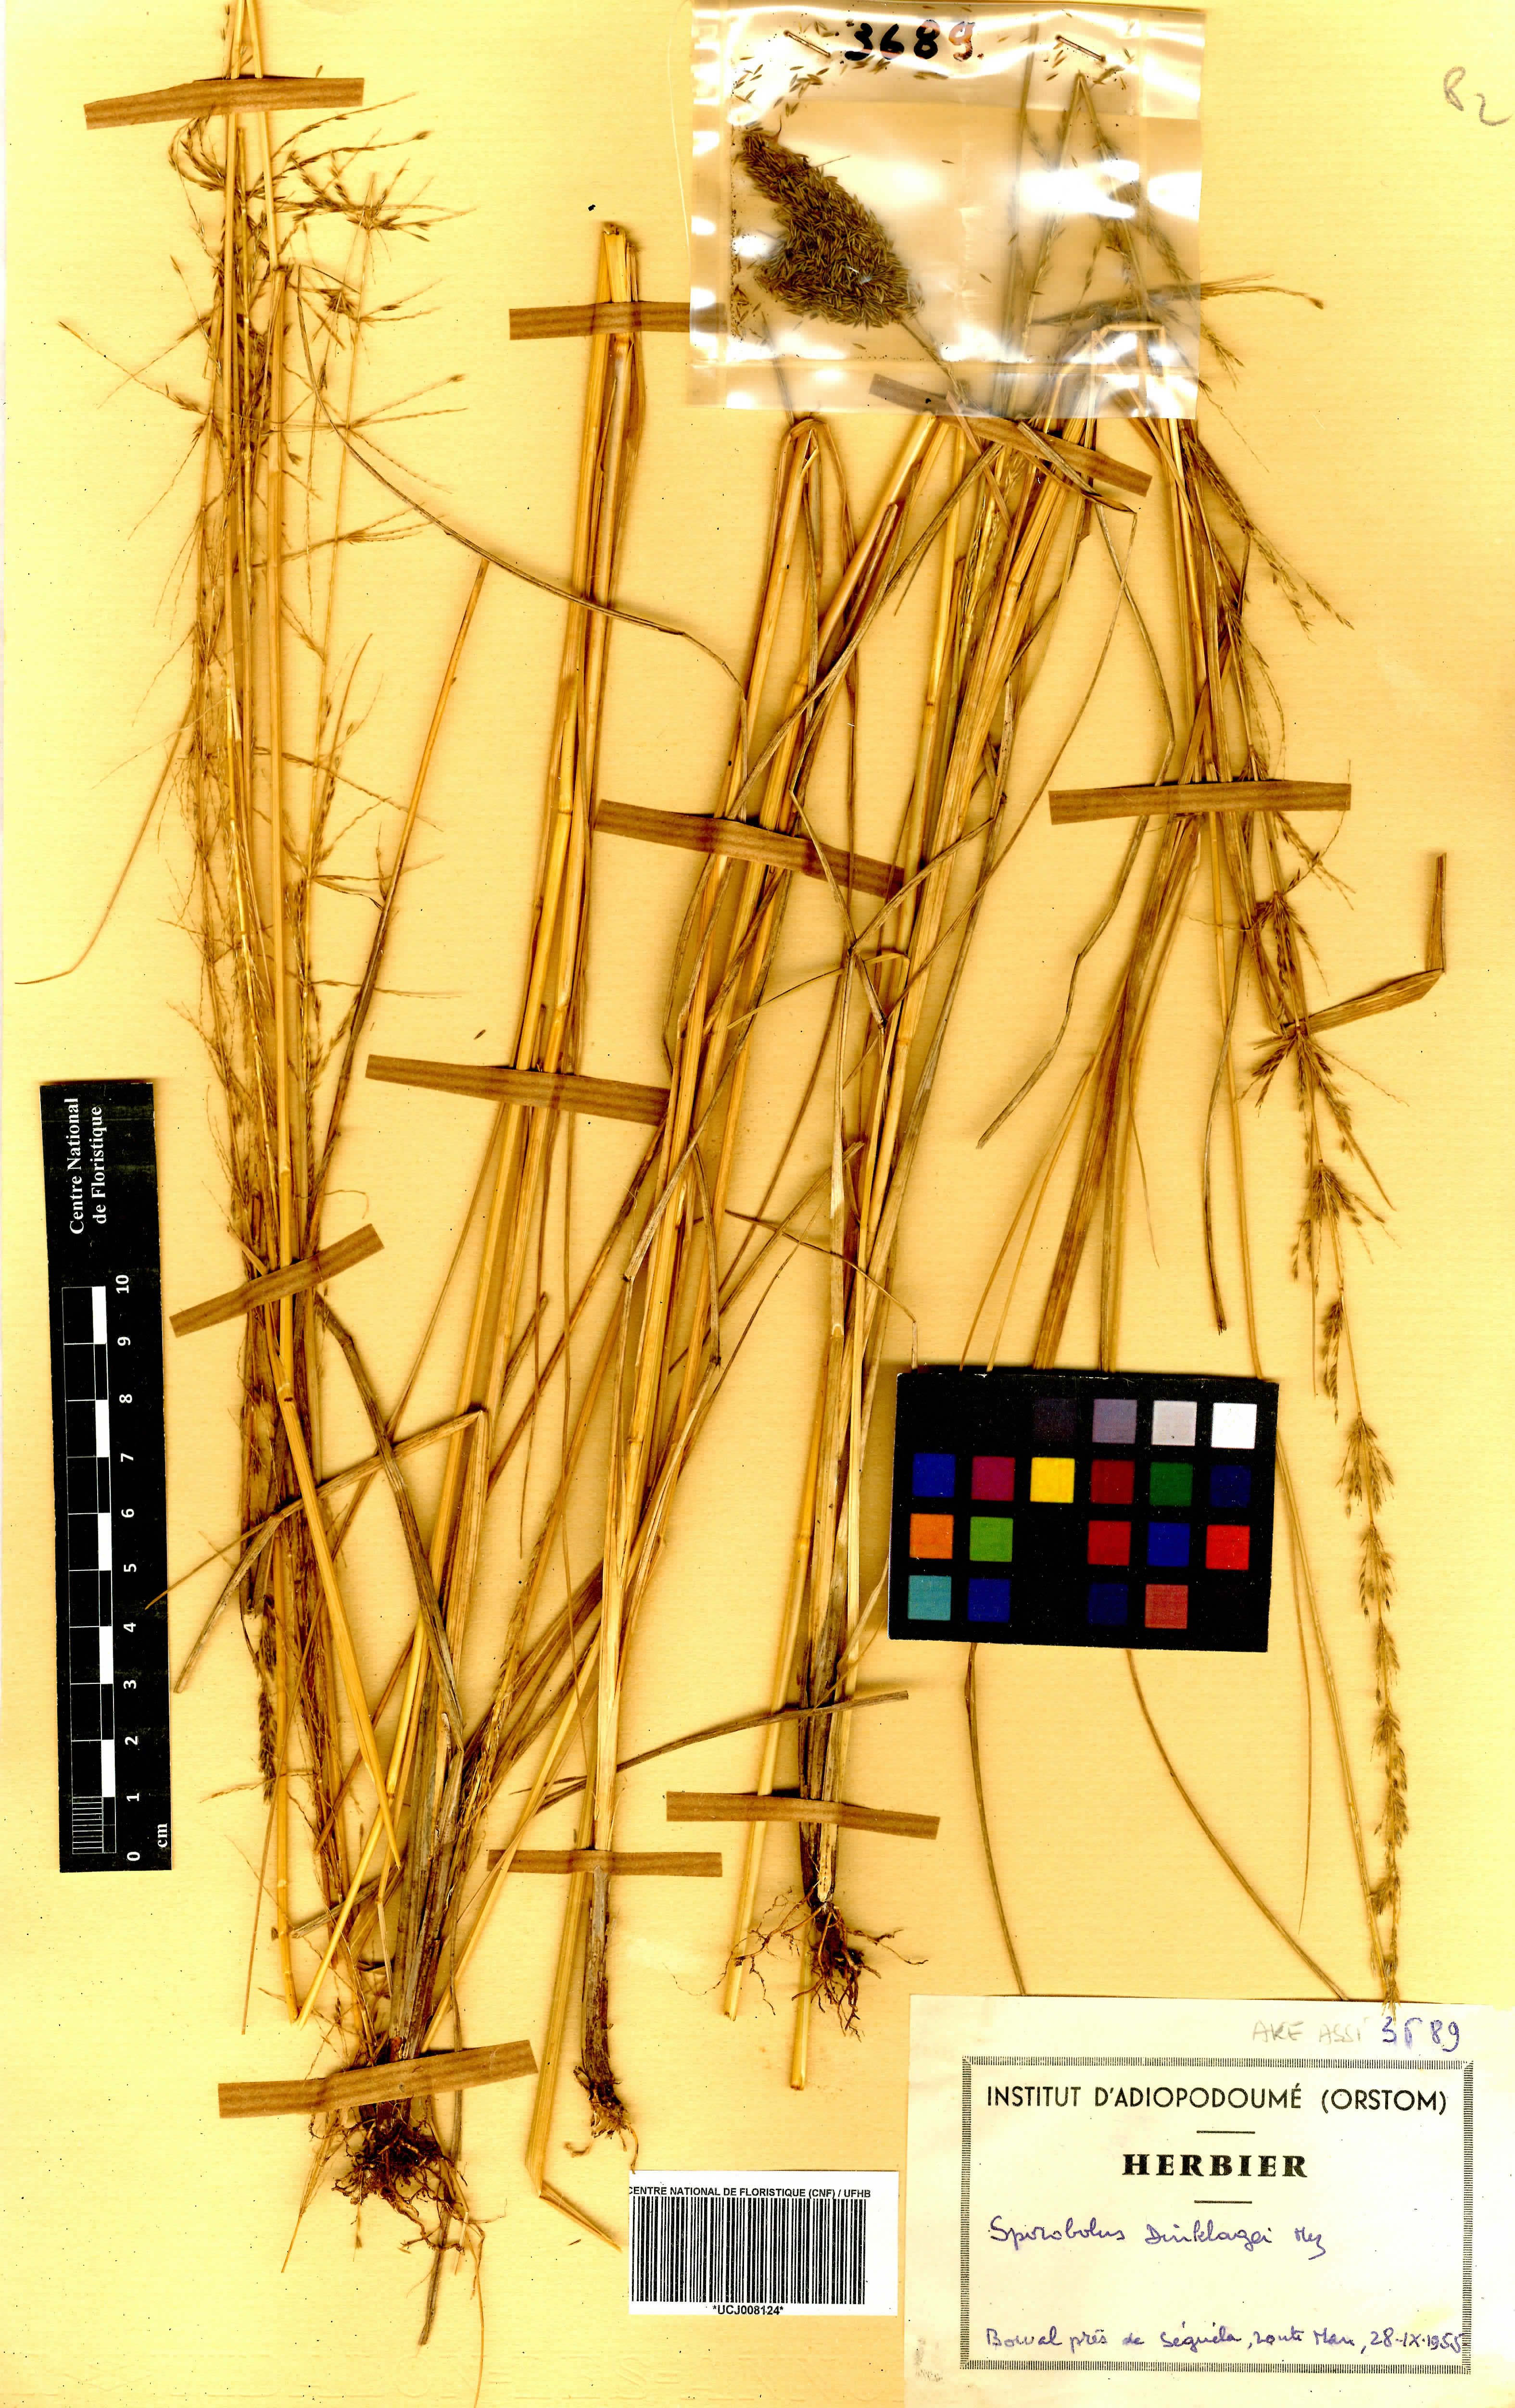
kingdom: Plantae
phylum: Tracheophyta
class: Liliopsida
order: Poales
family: Poaceae
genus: Sporobolus
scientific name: Sporobolus dinklagei
